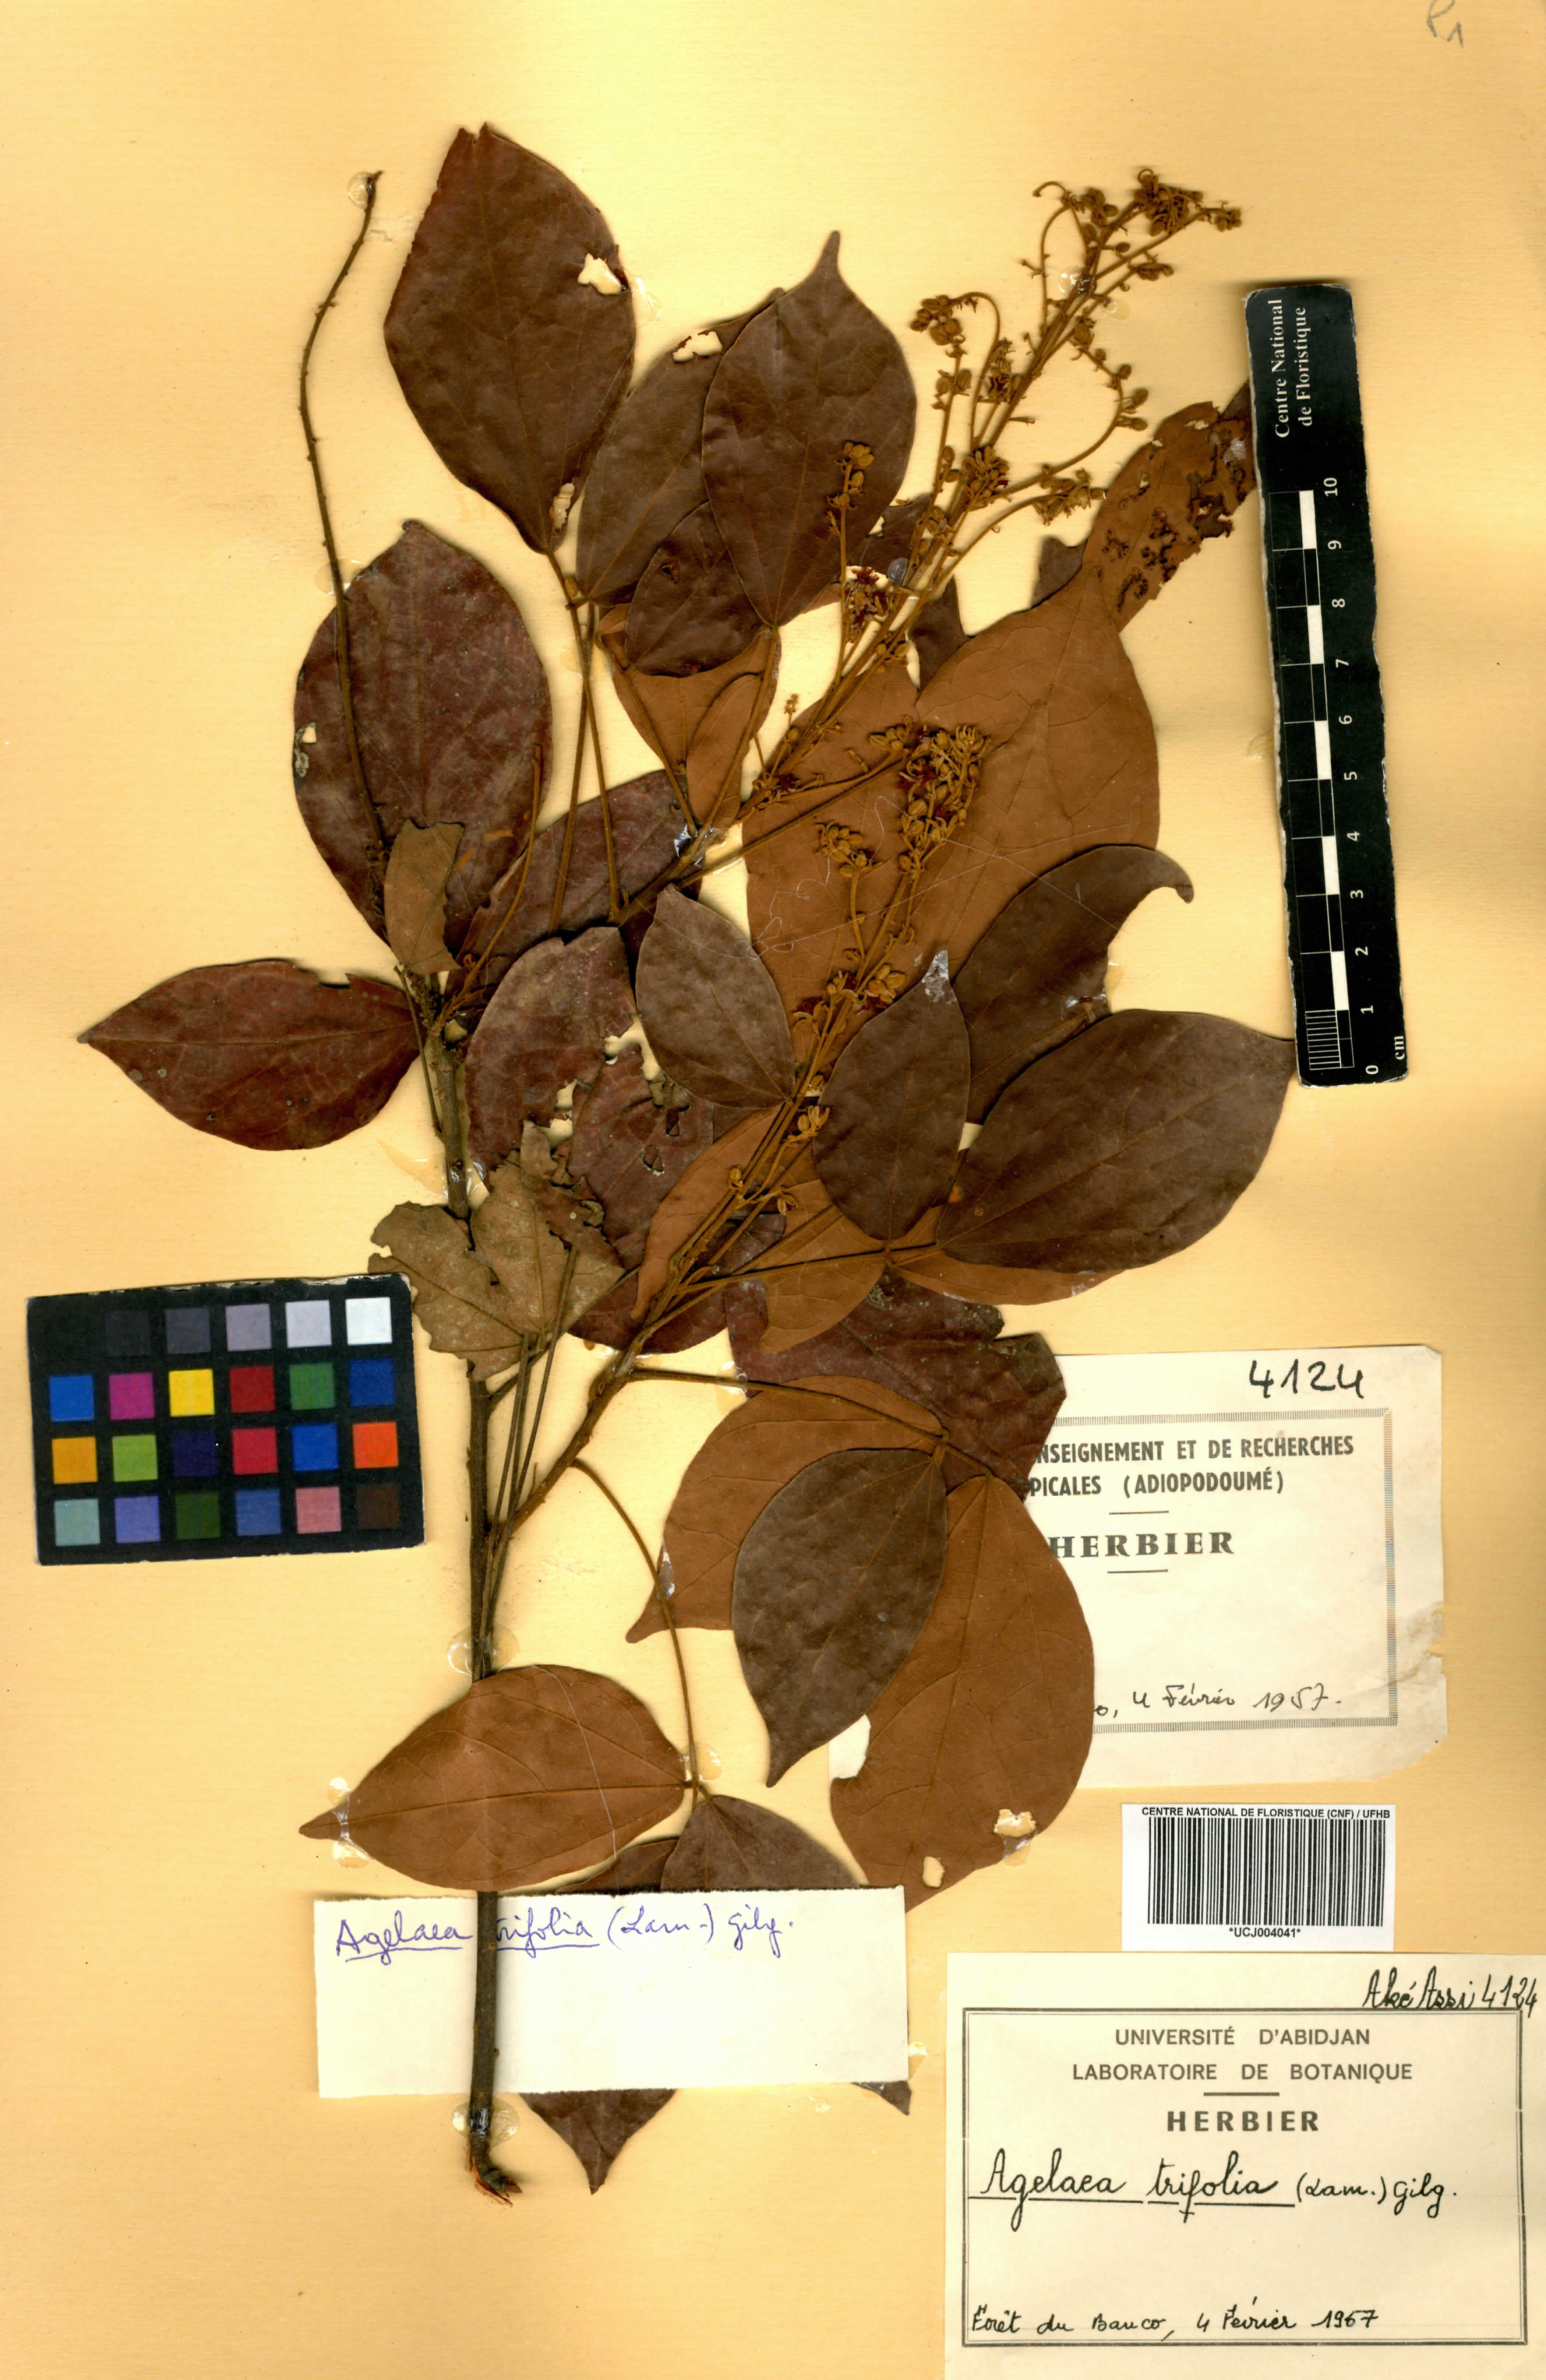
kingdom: Plantae
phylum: Tracheophyta
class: Magnoliopsida
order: Oxalidales
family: Connaraceae
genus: Agelaea
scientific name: Agelaea pentagyna
